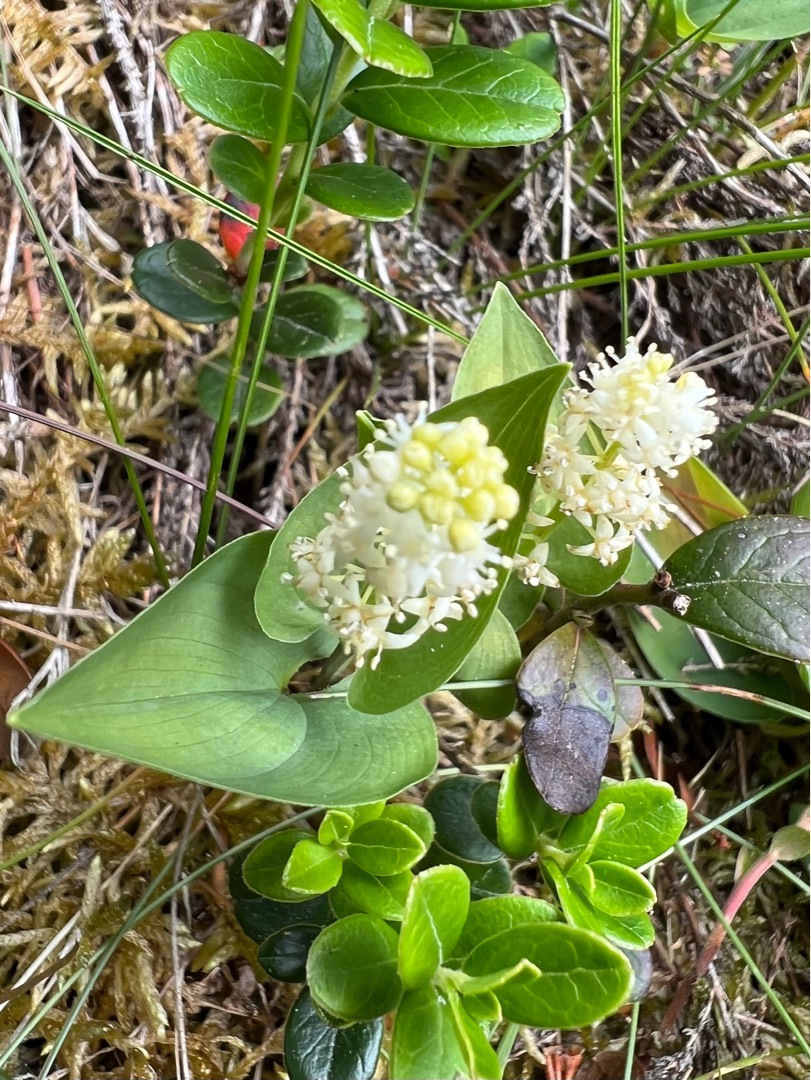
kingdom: Plantae
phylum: Tracheophyta
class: Liliopsida
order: Asparagales
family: Asparagaceae
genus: Maianthemum
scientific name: Maianthemum bifolium
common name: Majblomst
